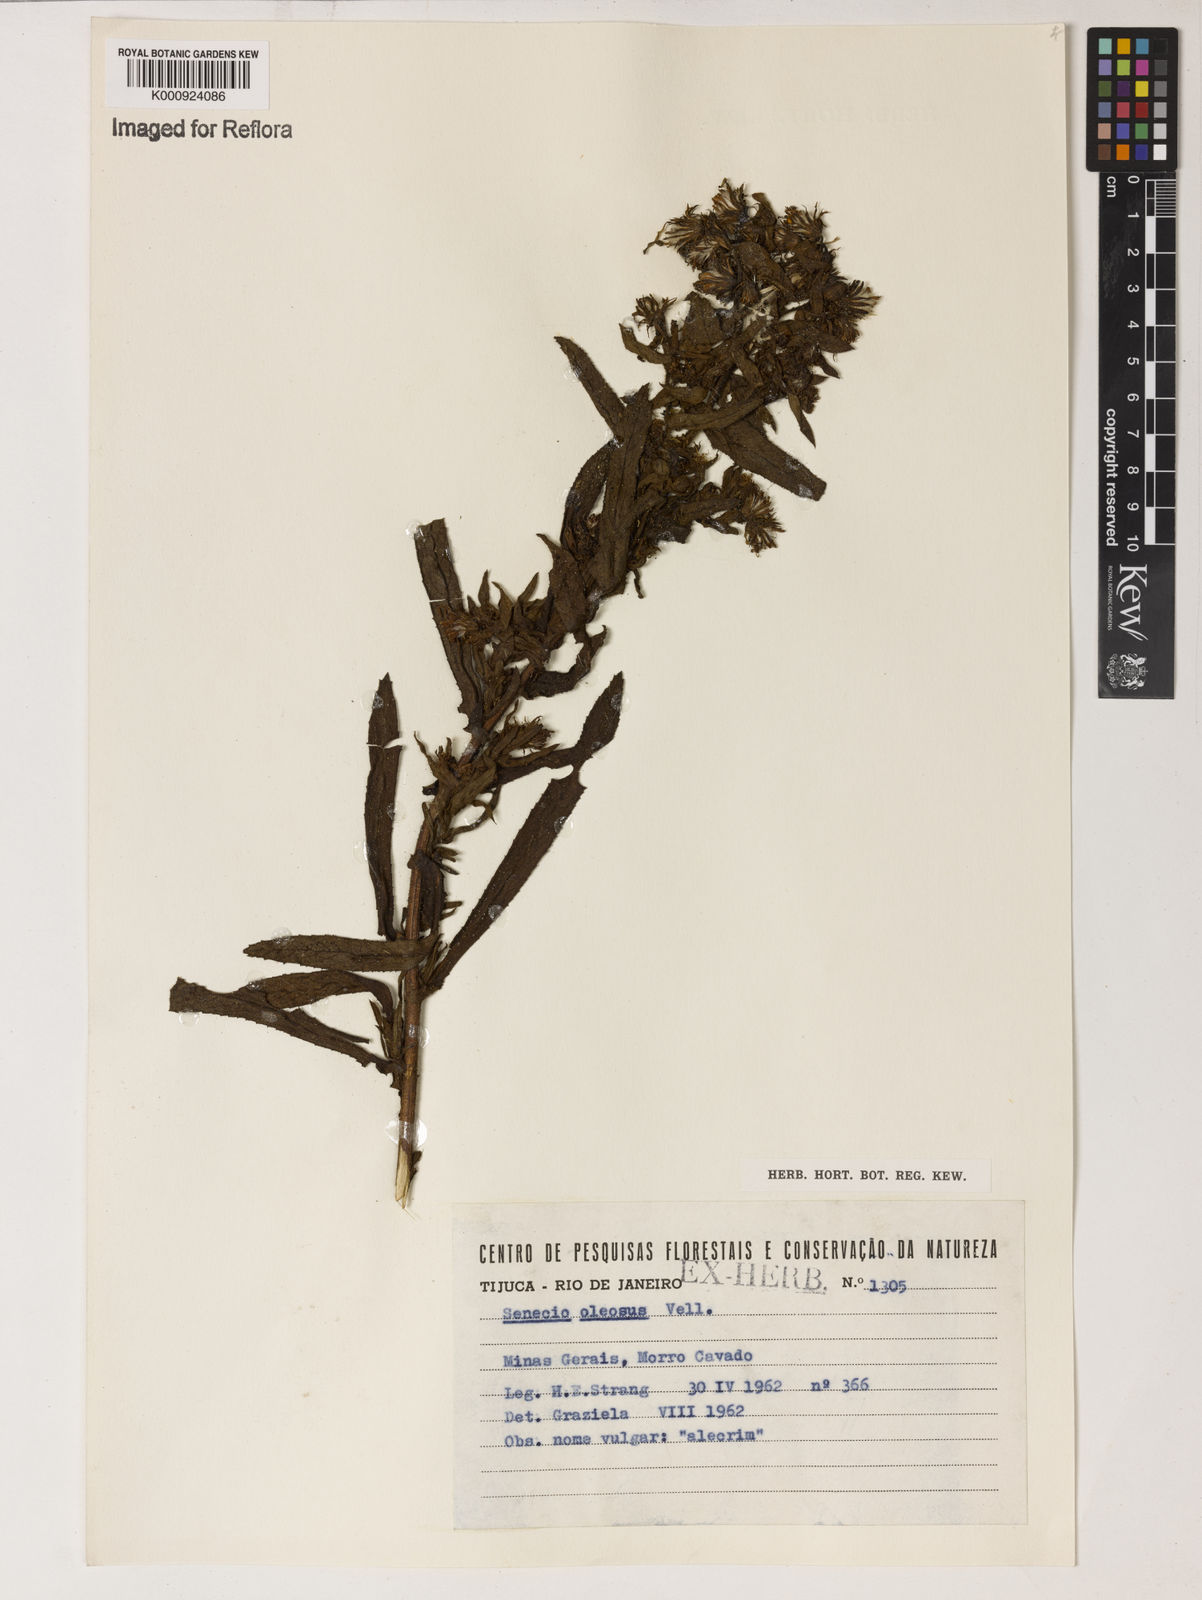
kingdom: Plantae
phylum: Tracheophyta
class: Magnoliopsida
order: Asterales
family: Asteraceae
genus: Senecio
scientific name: Senecio oleosus
